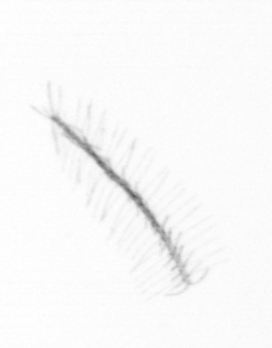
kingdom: Chromista
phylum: Ochrophyta
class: Bacillariophyceae
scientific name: Bacillariophyceae
